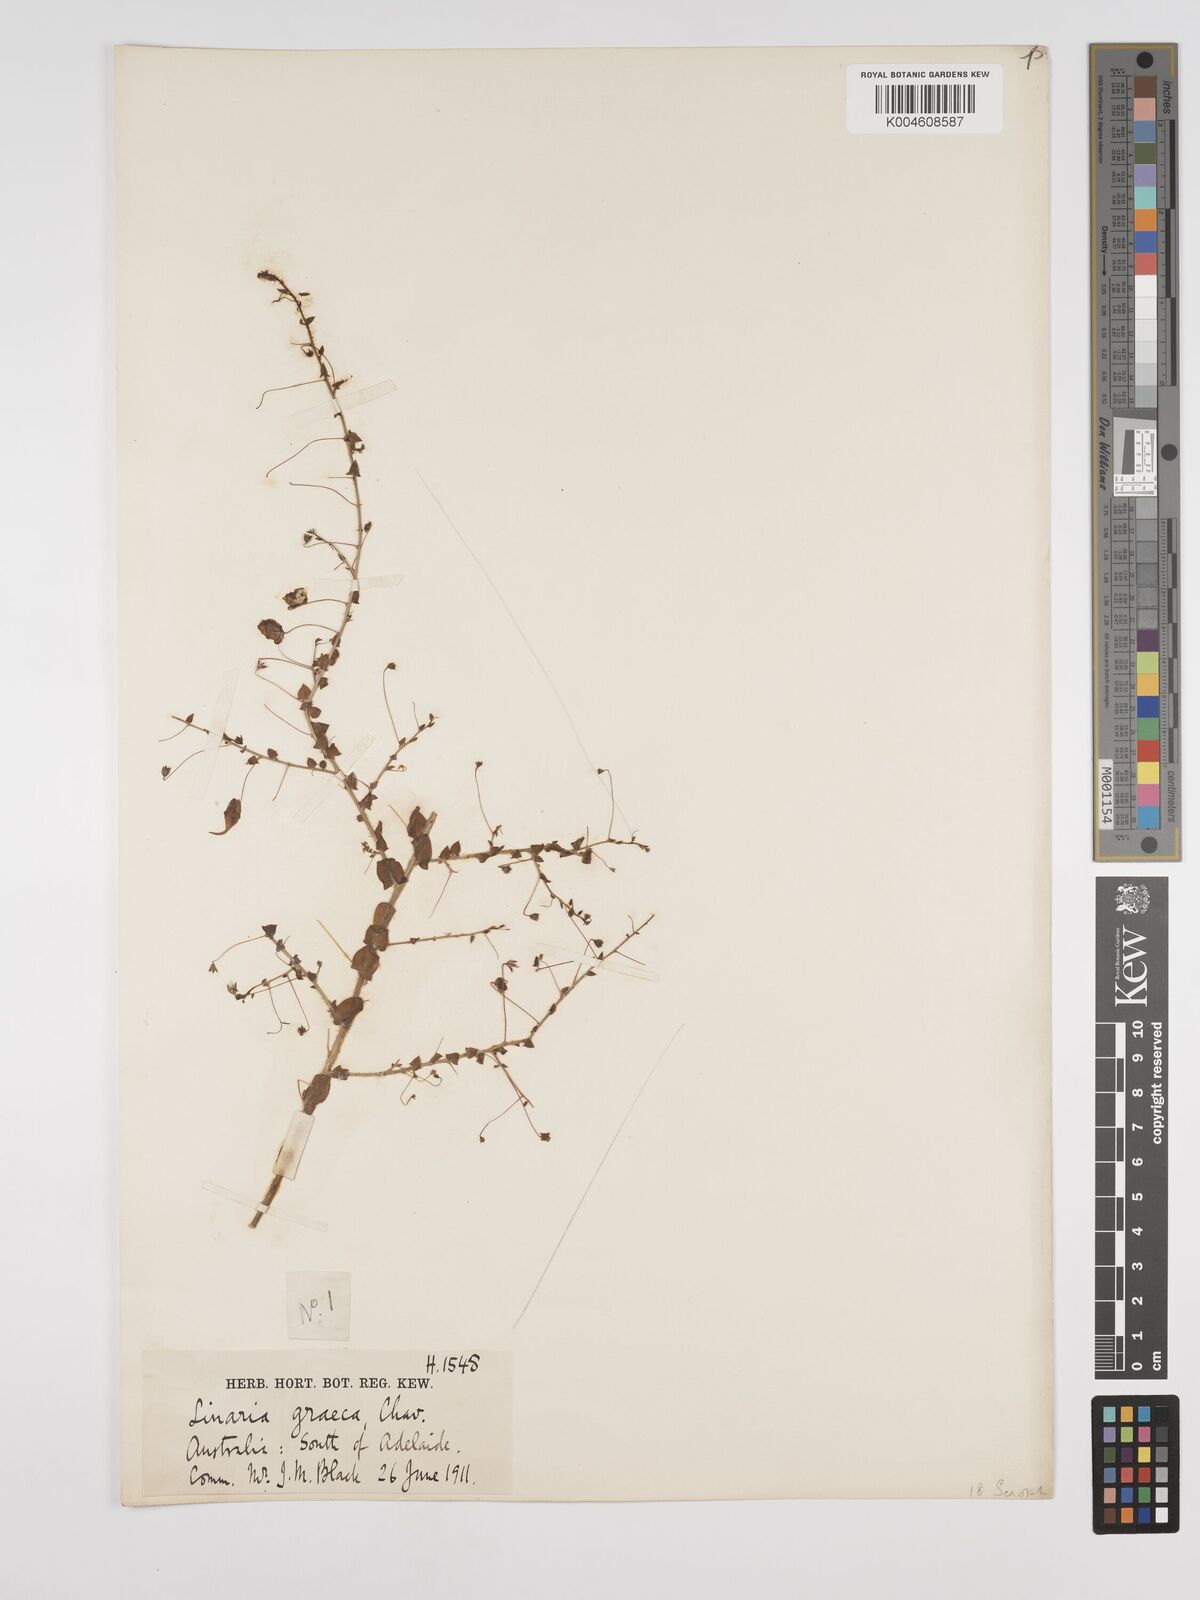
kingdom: Plantae
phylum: Tracheophyta
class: Magnoliopsida
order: Lamiales
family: Plantaginaceae
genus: Kickxia
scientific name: Kickxia commutata
